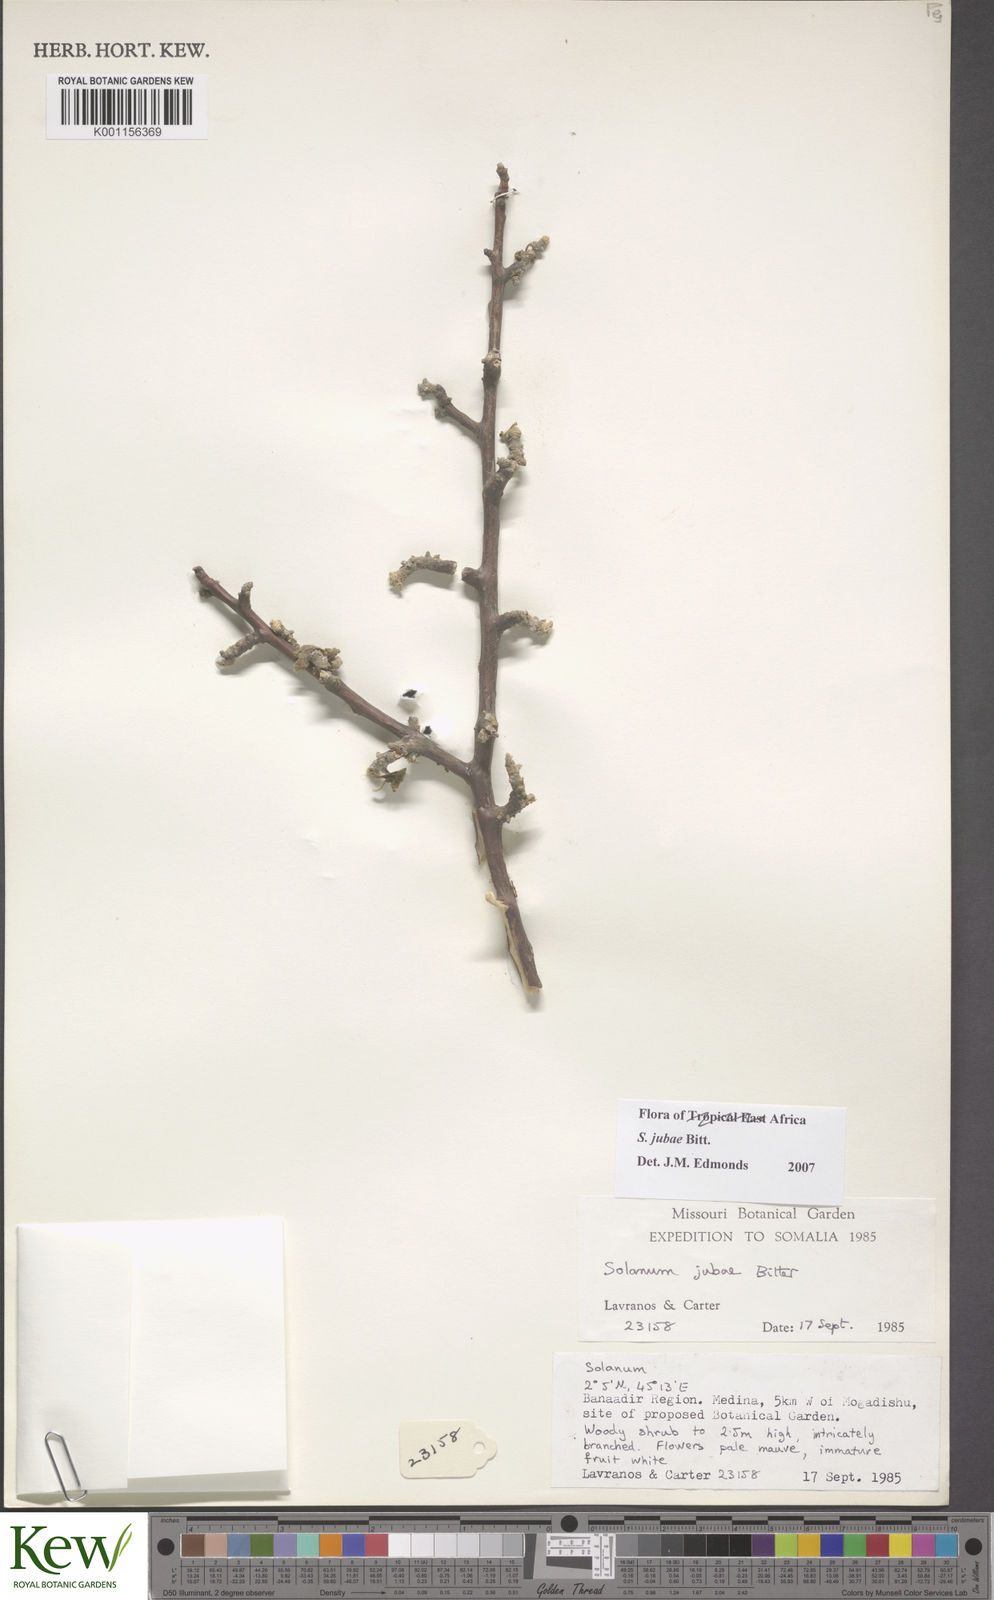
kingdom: Plantae
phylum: Tracheophyta
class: Magnoliopsida
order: Solanales
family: Solanaceae
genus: Solanum
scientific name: Solanum jubae
